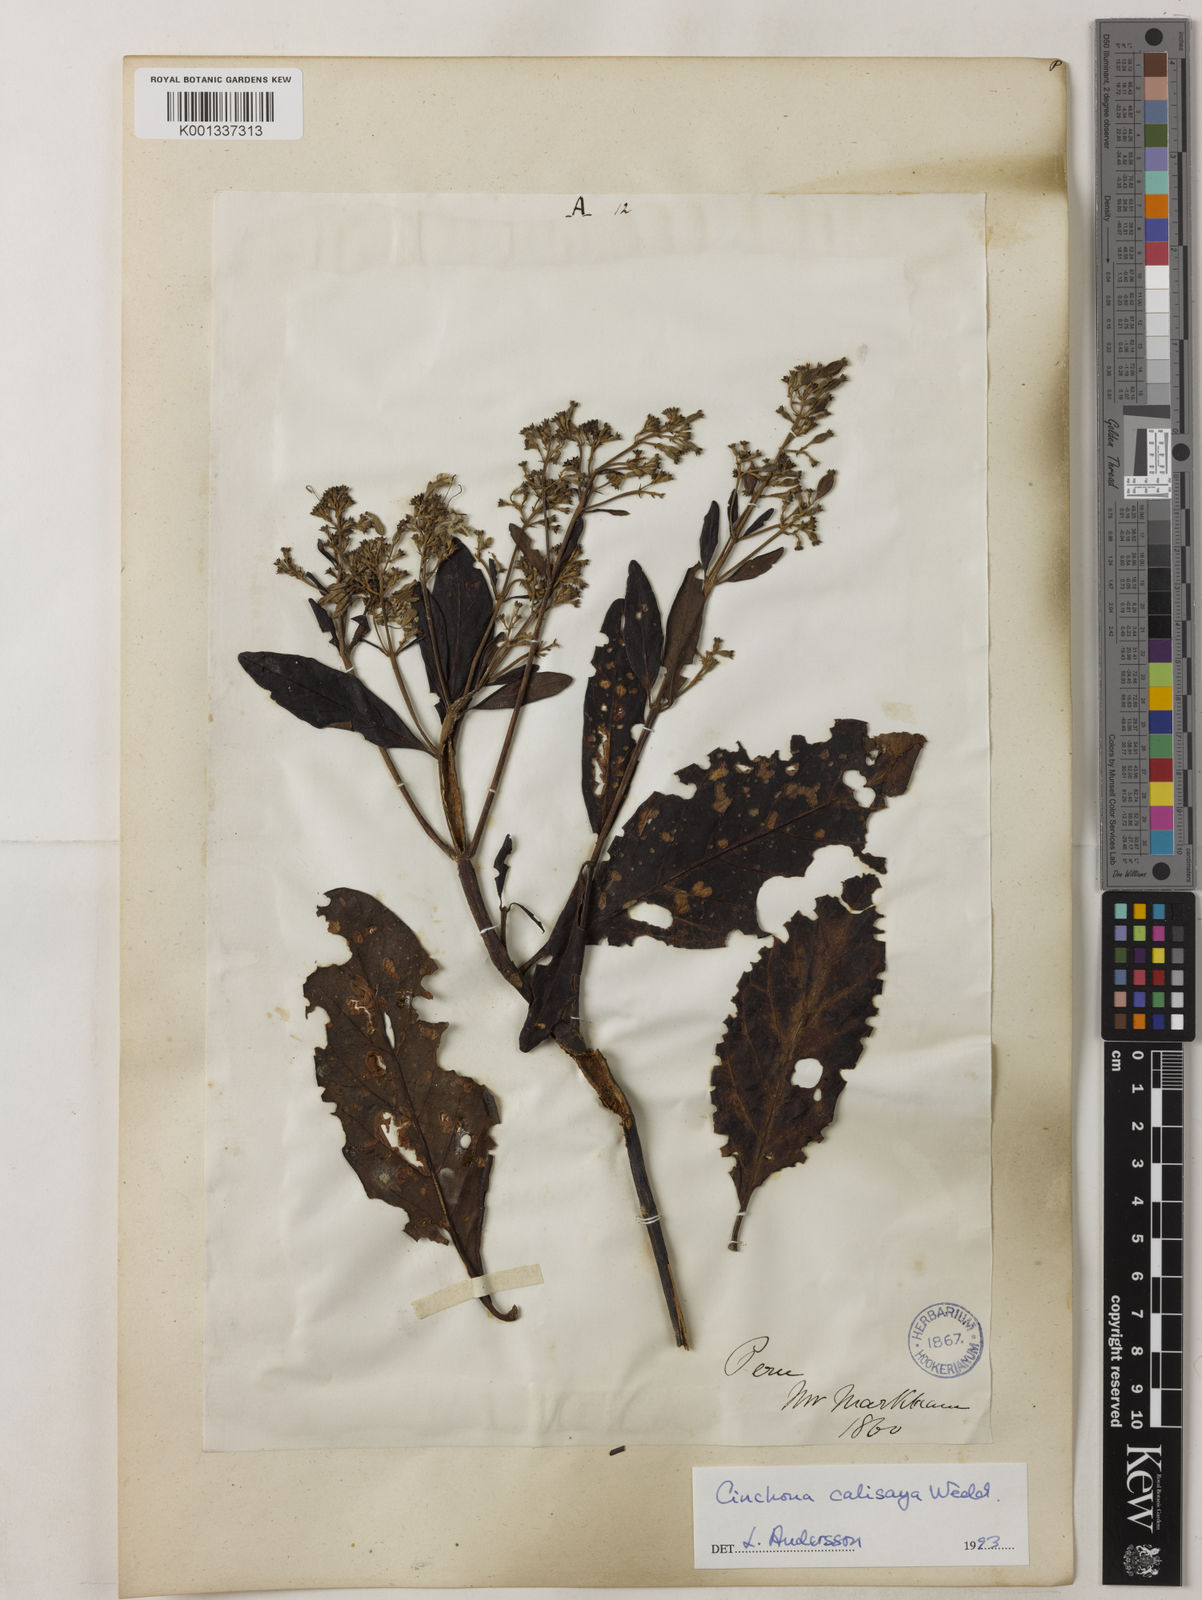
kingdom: Plantae
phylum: Tracheophyta
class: Magnoliopsida
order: Gentianales
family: Rubiaceae
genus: Cinchona
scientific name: Cinchona calisaya
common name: Ledgerbark
